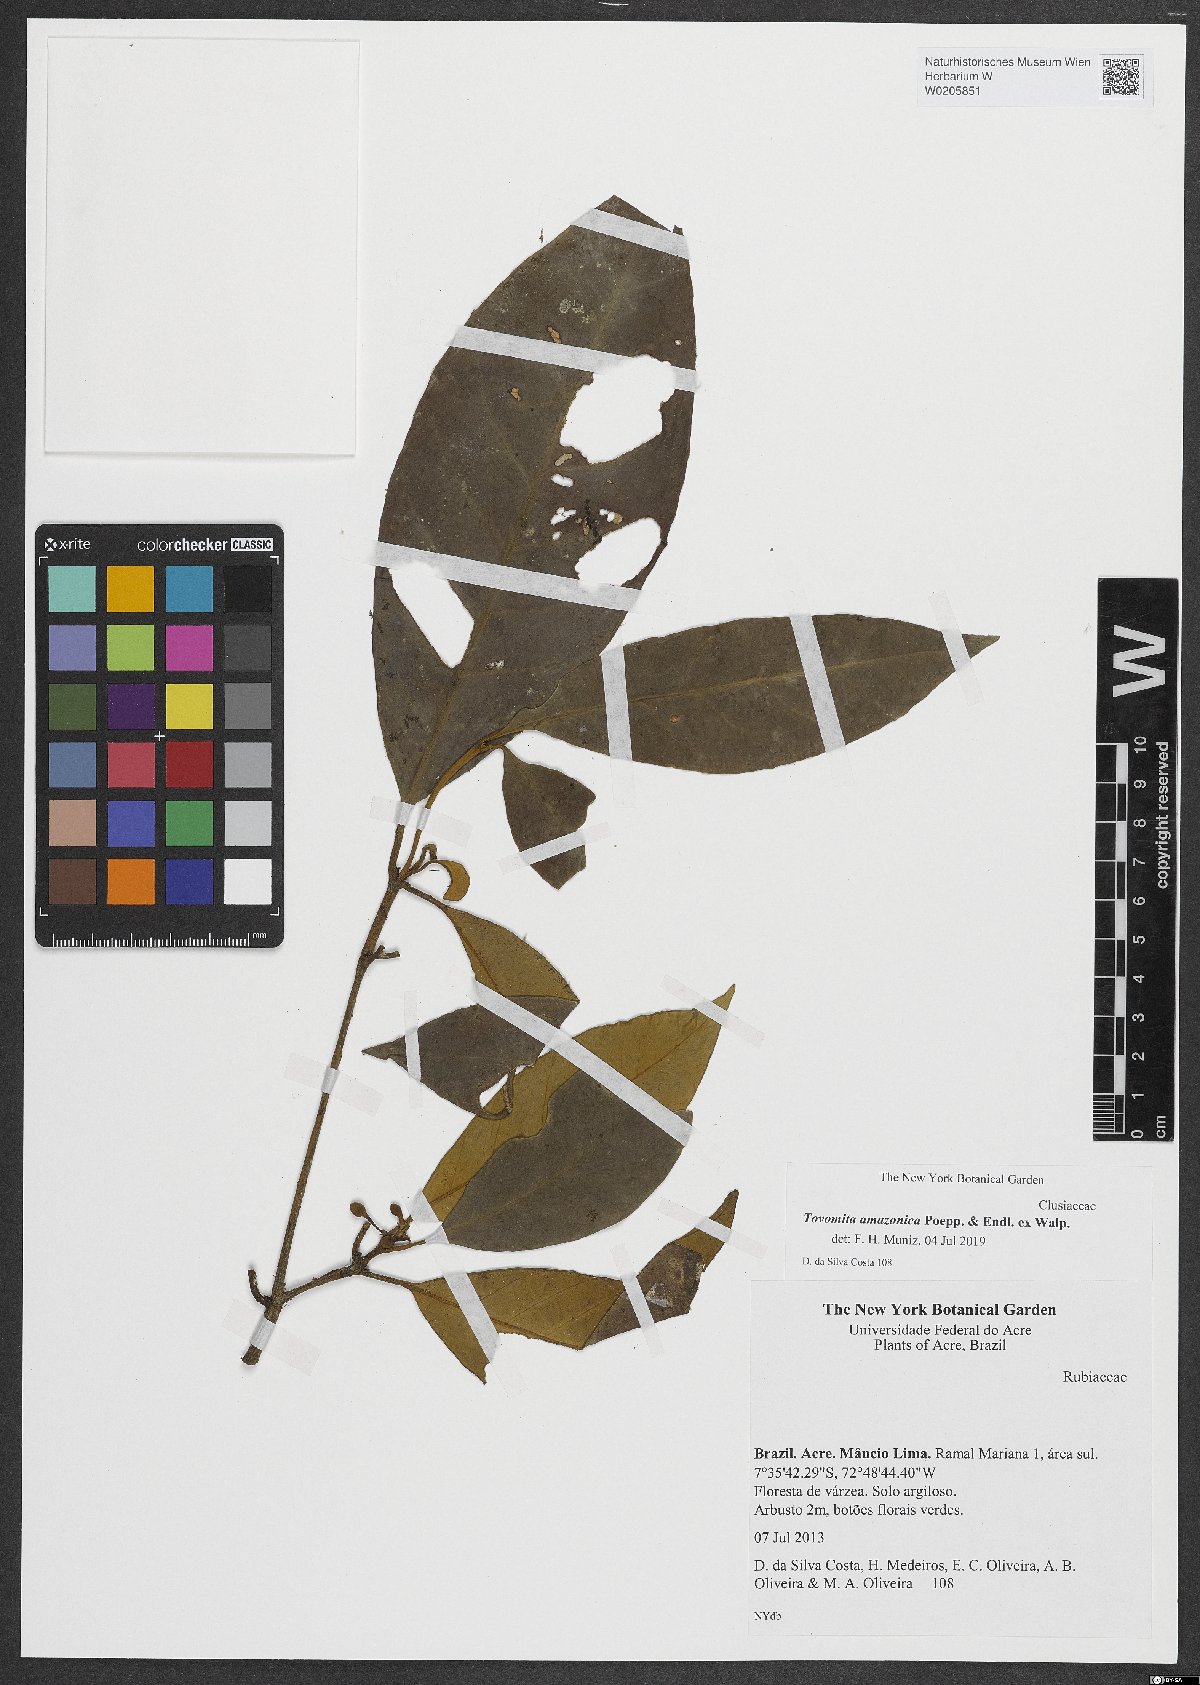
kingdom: Plantae
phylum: Tracheophyta
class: Magnoliopsida
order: Malpighiales
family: Clusiaceae
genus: Tovomita
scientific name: Tovomita amazonica
